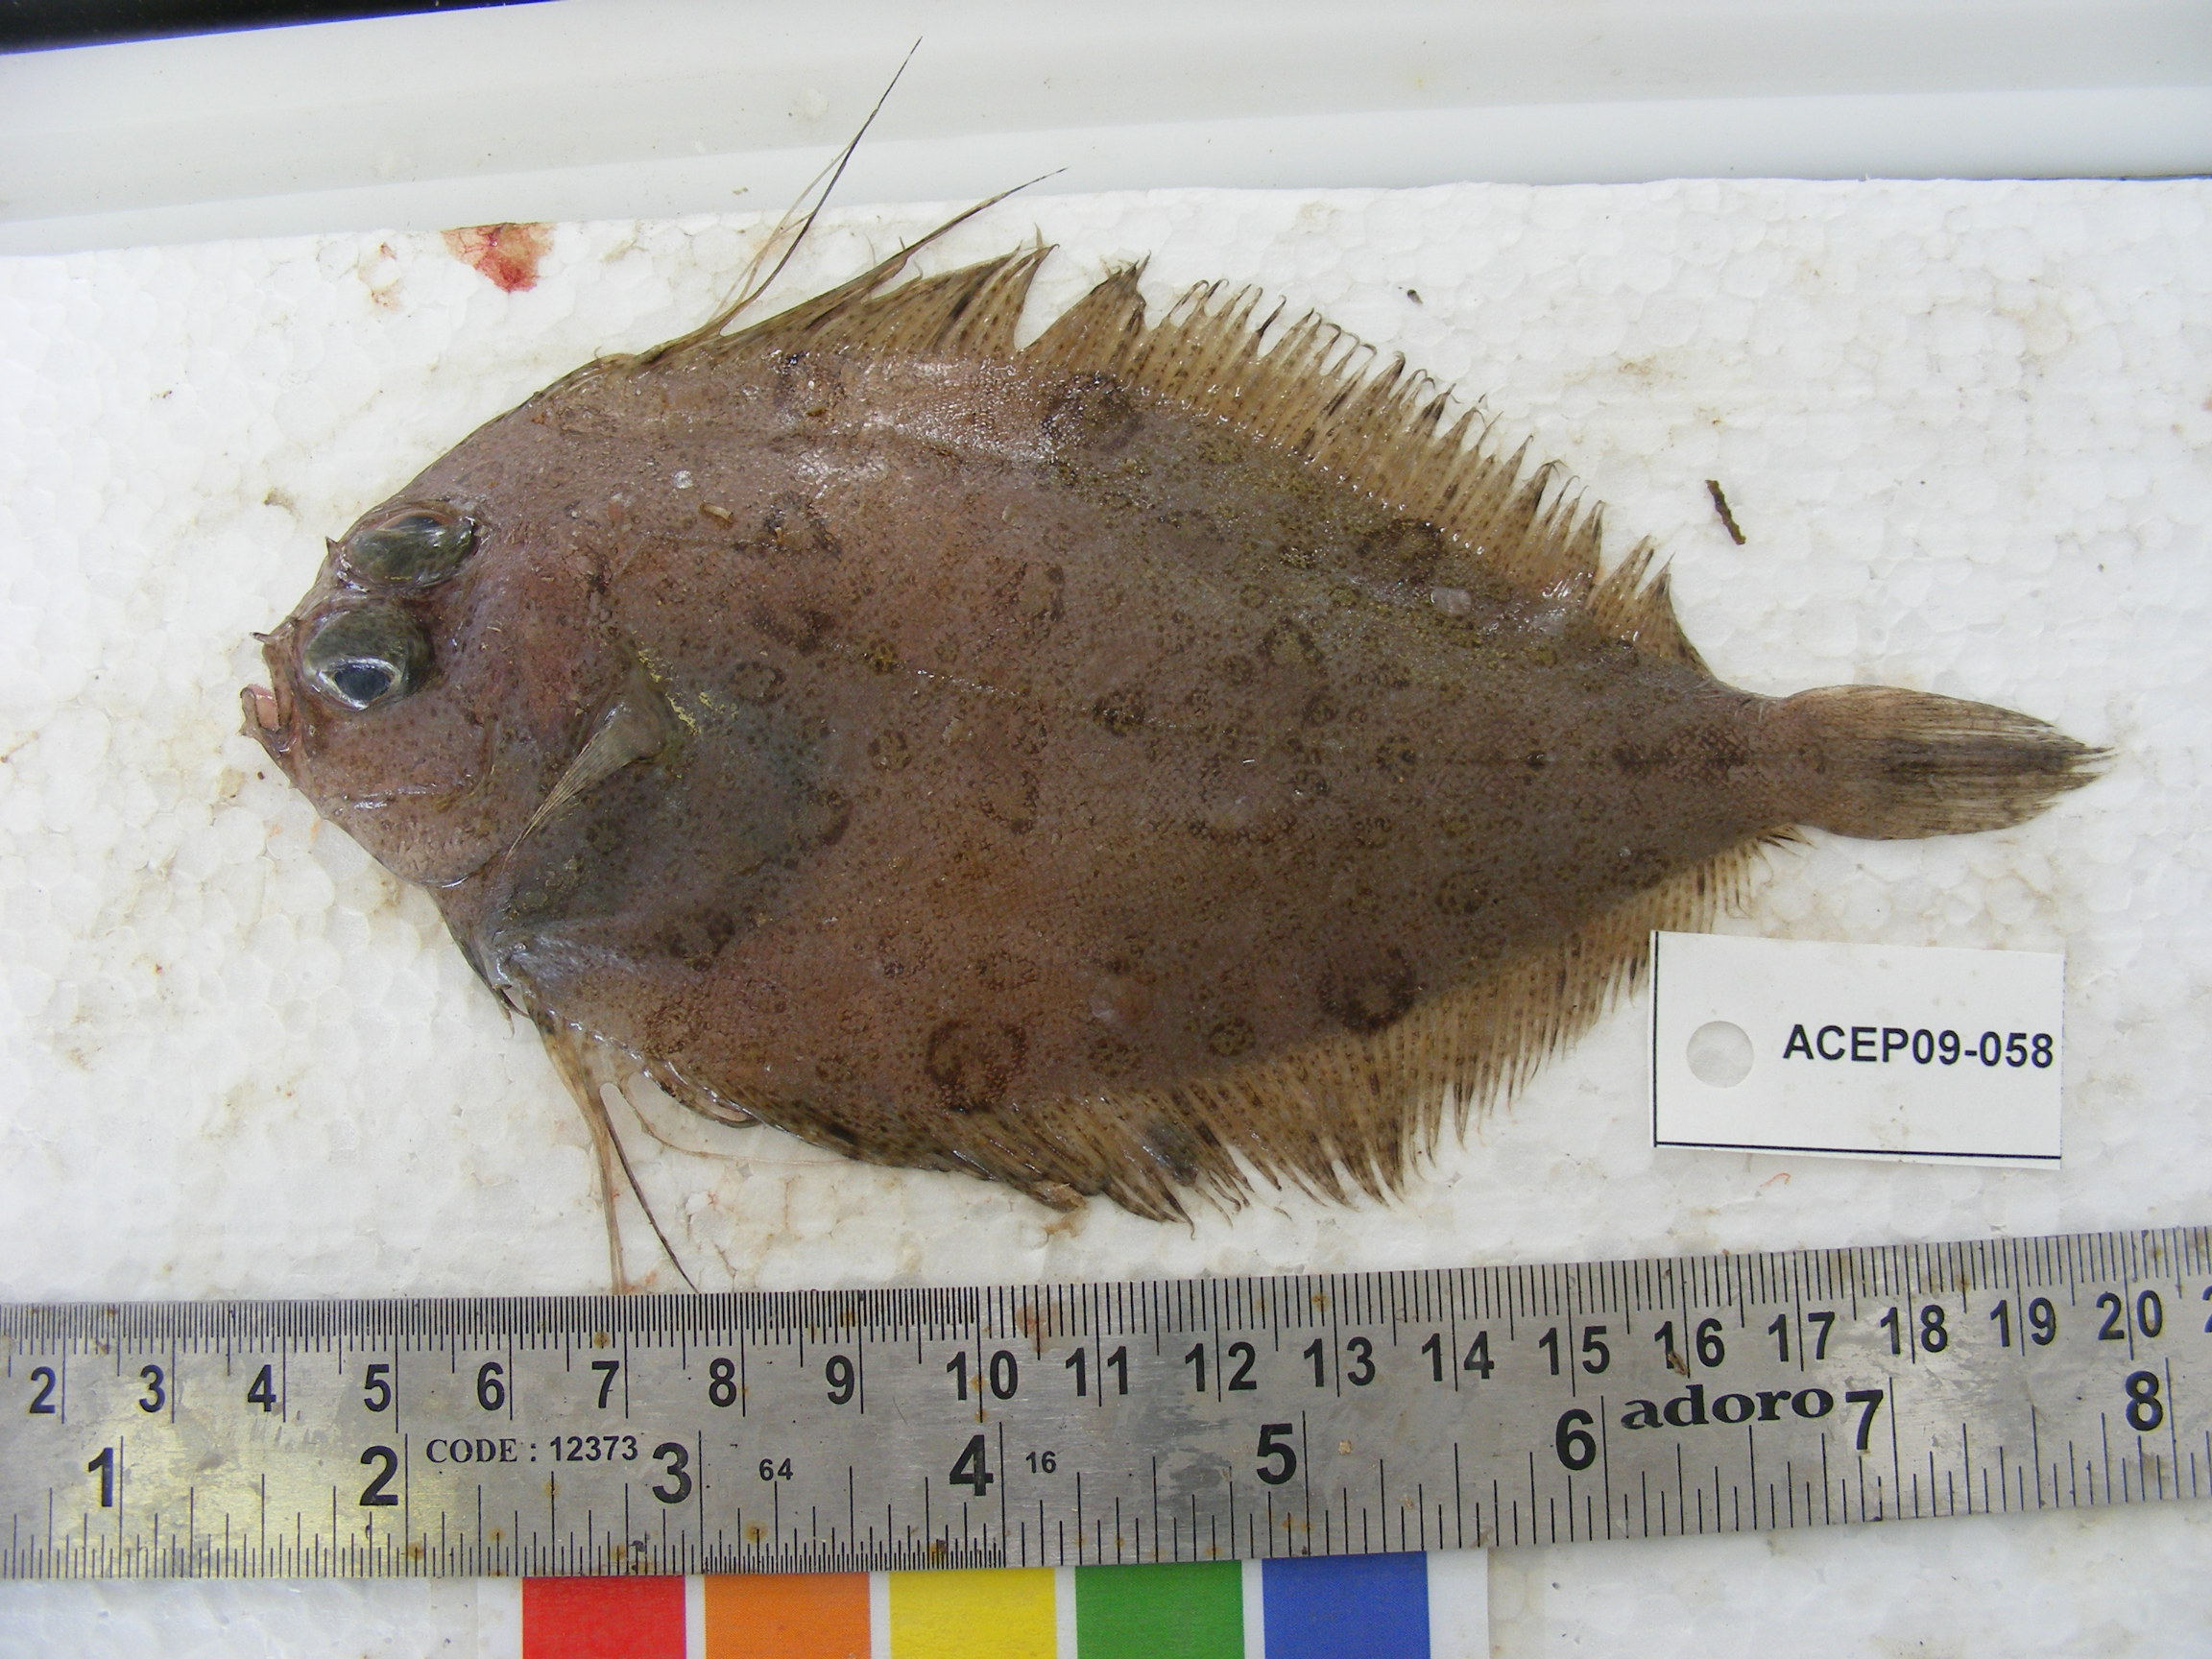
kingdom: Animalia
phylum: Chordata
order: Pleuronectiformes
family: Paralichthyidae
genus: Pseudorhombus
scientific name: Pseudorhombus natalensis
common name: Natal flounder
